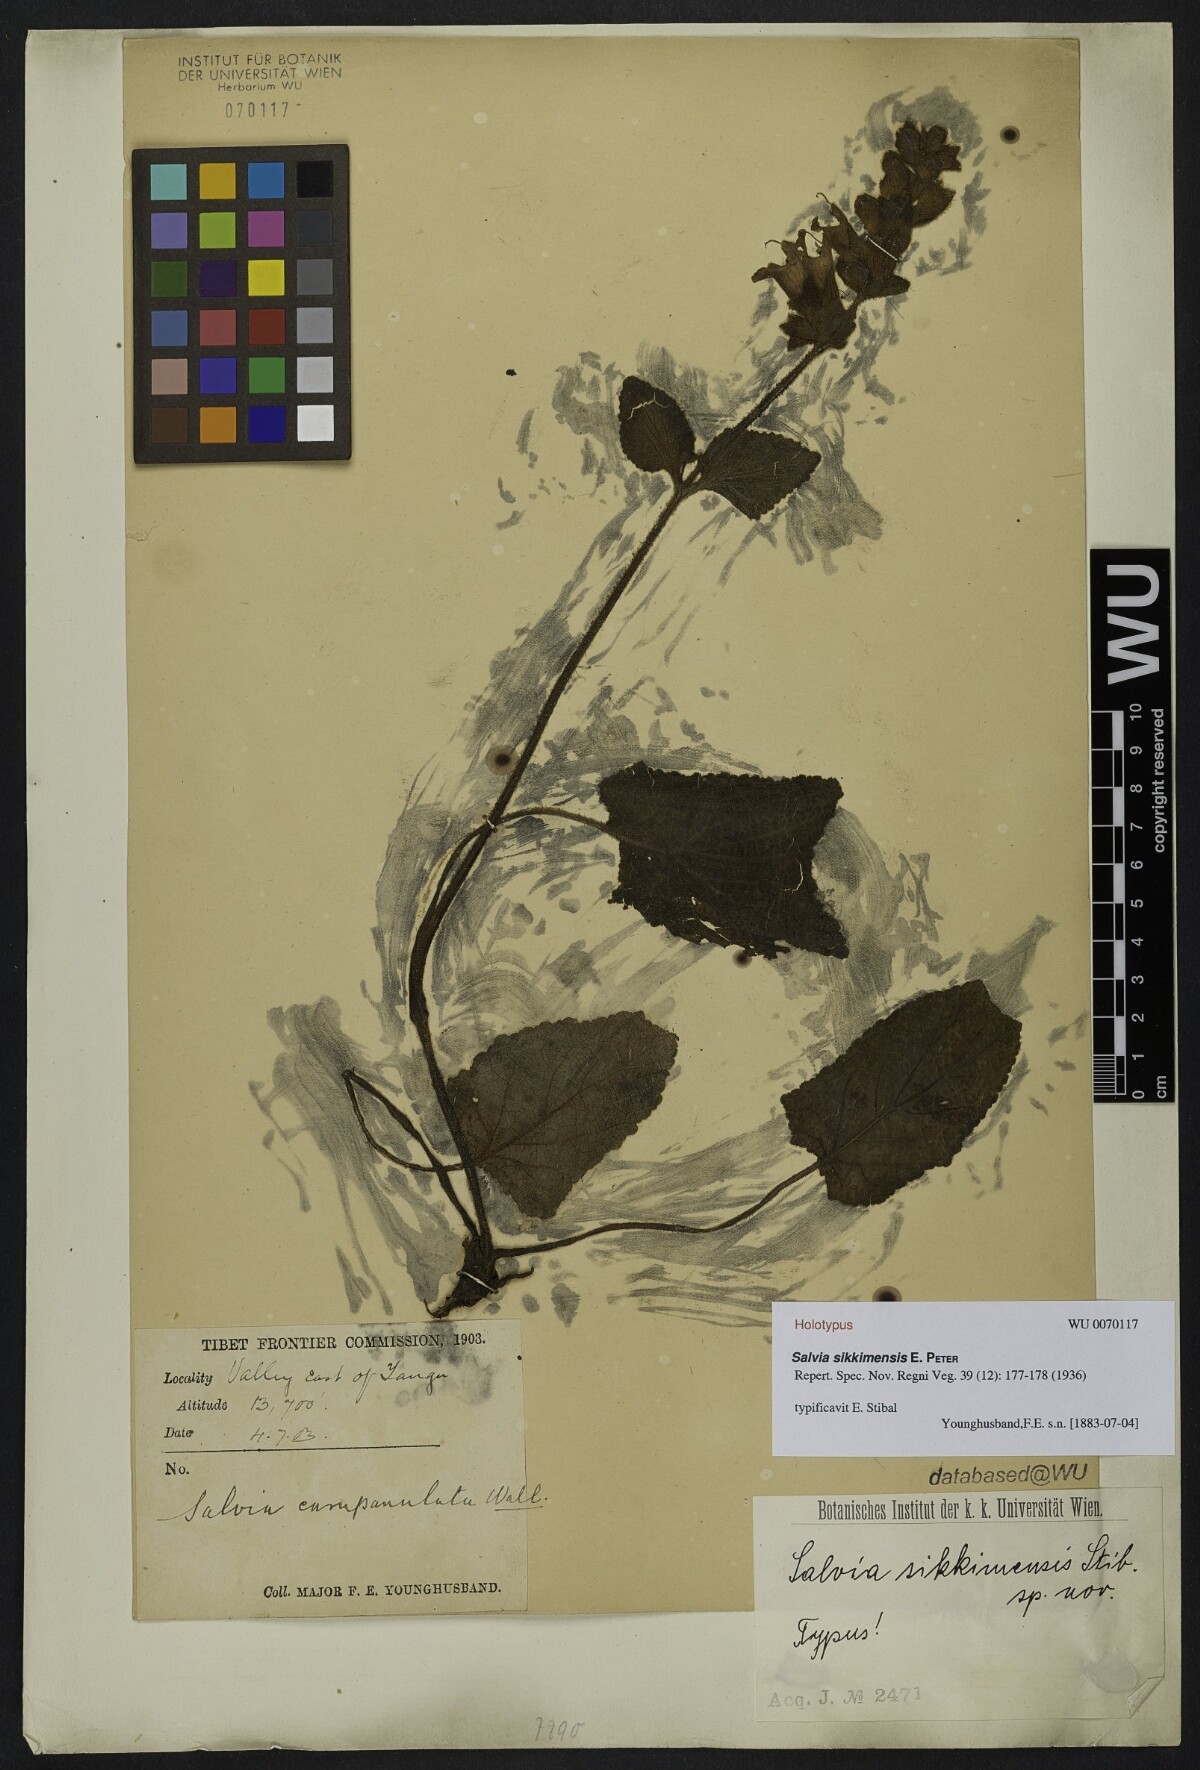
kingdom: Plantae
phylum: Tracheophyta
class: Magnoliopsida
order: Lamiales
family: Lamiaceae
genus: Salvia
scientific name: Salvia sikkimensis
